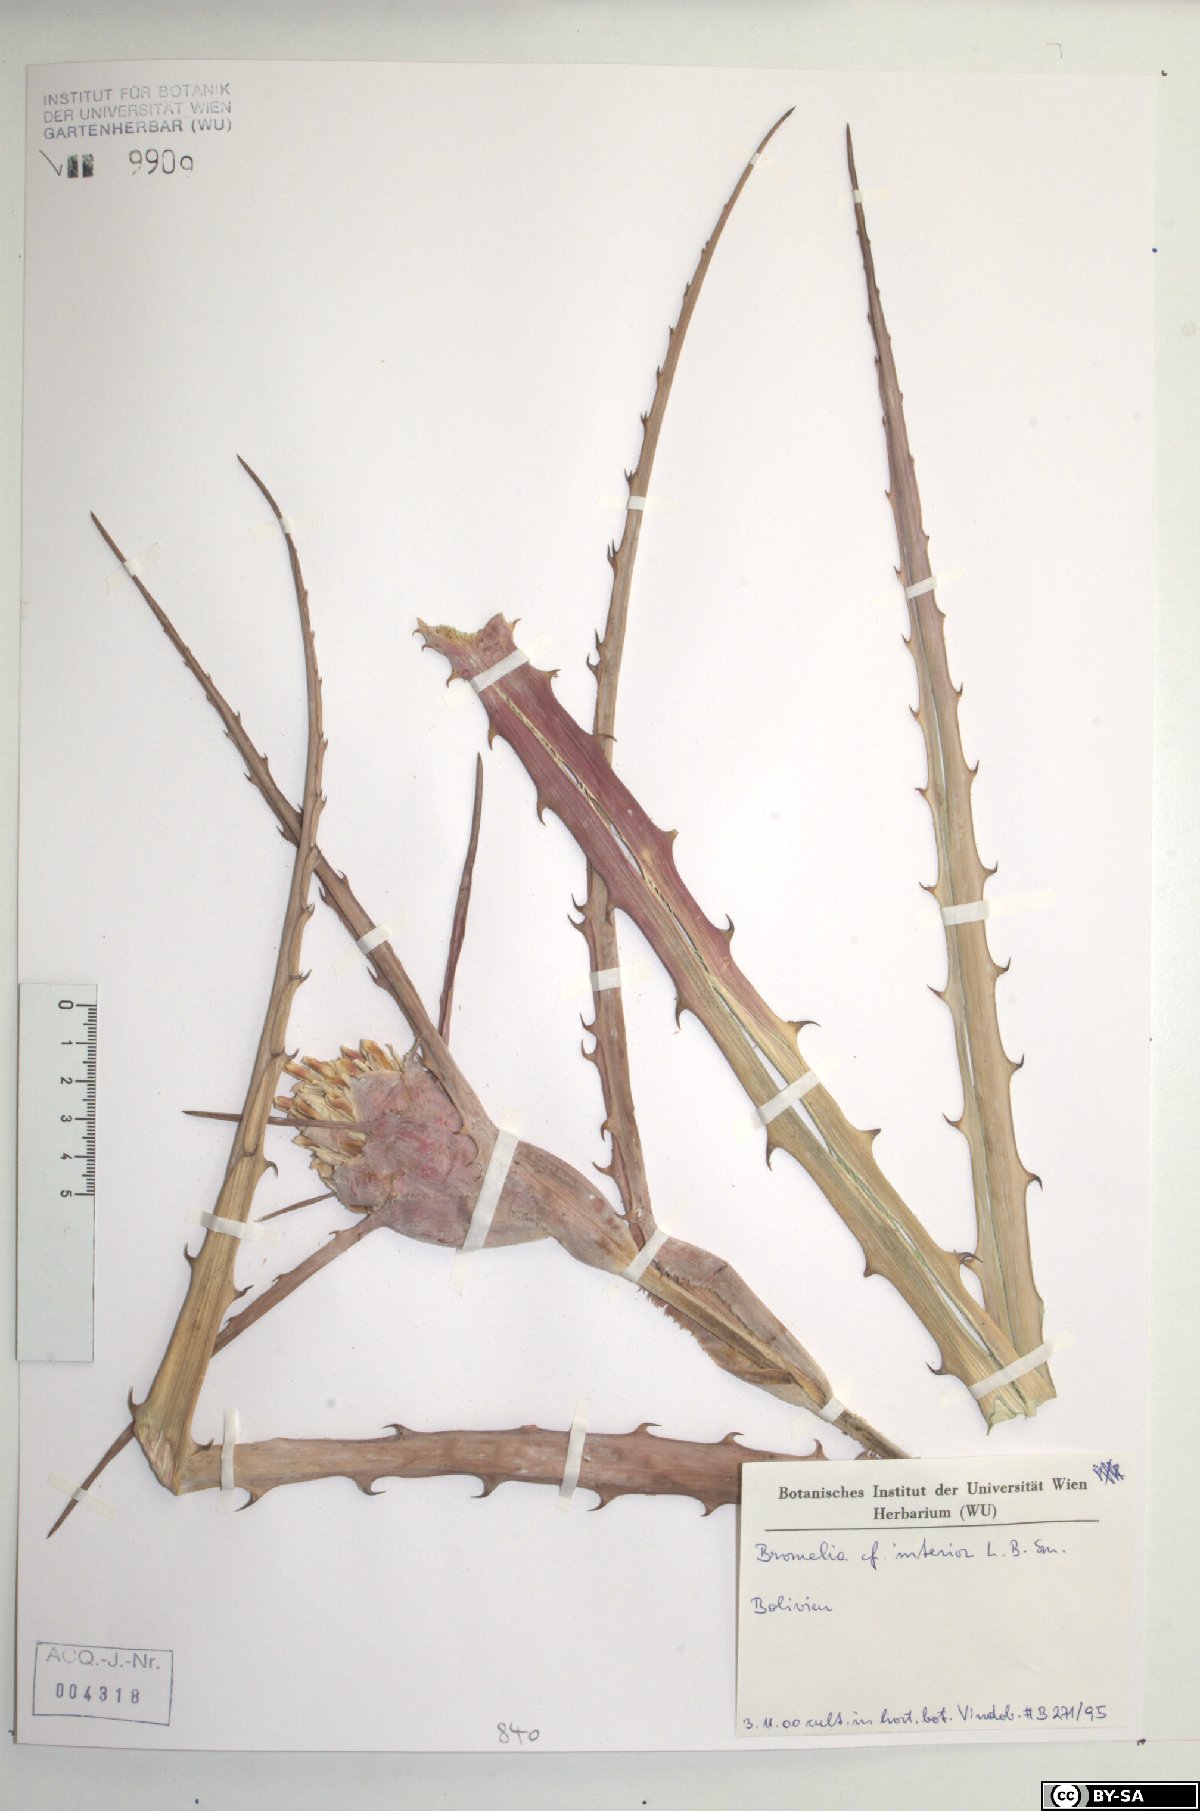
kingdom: Plantae
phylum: Tracheophyta
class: Liliopsida
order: Poales
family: Bromeliaceae
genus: Bromelia
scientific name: Bromelia serra
